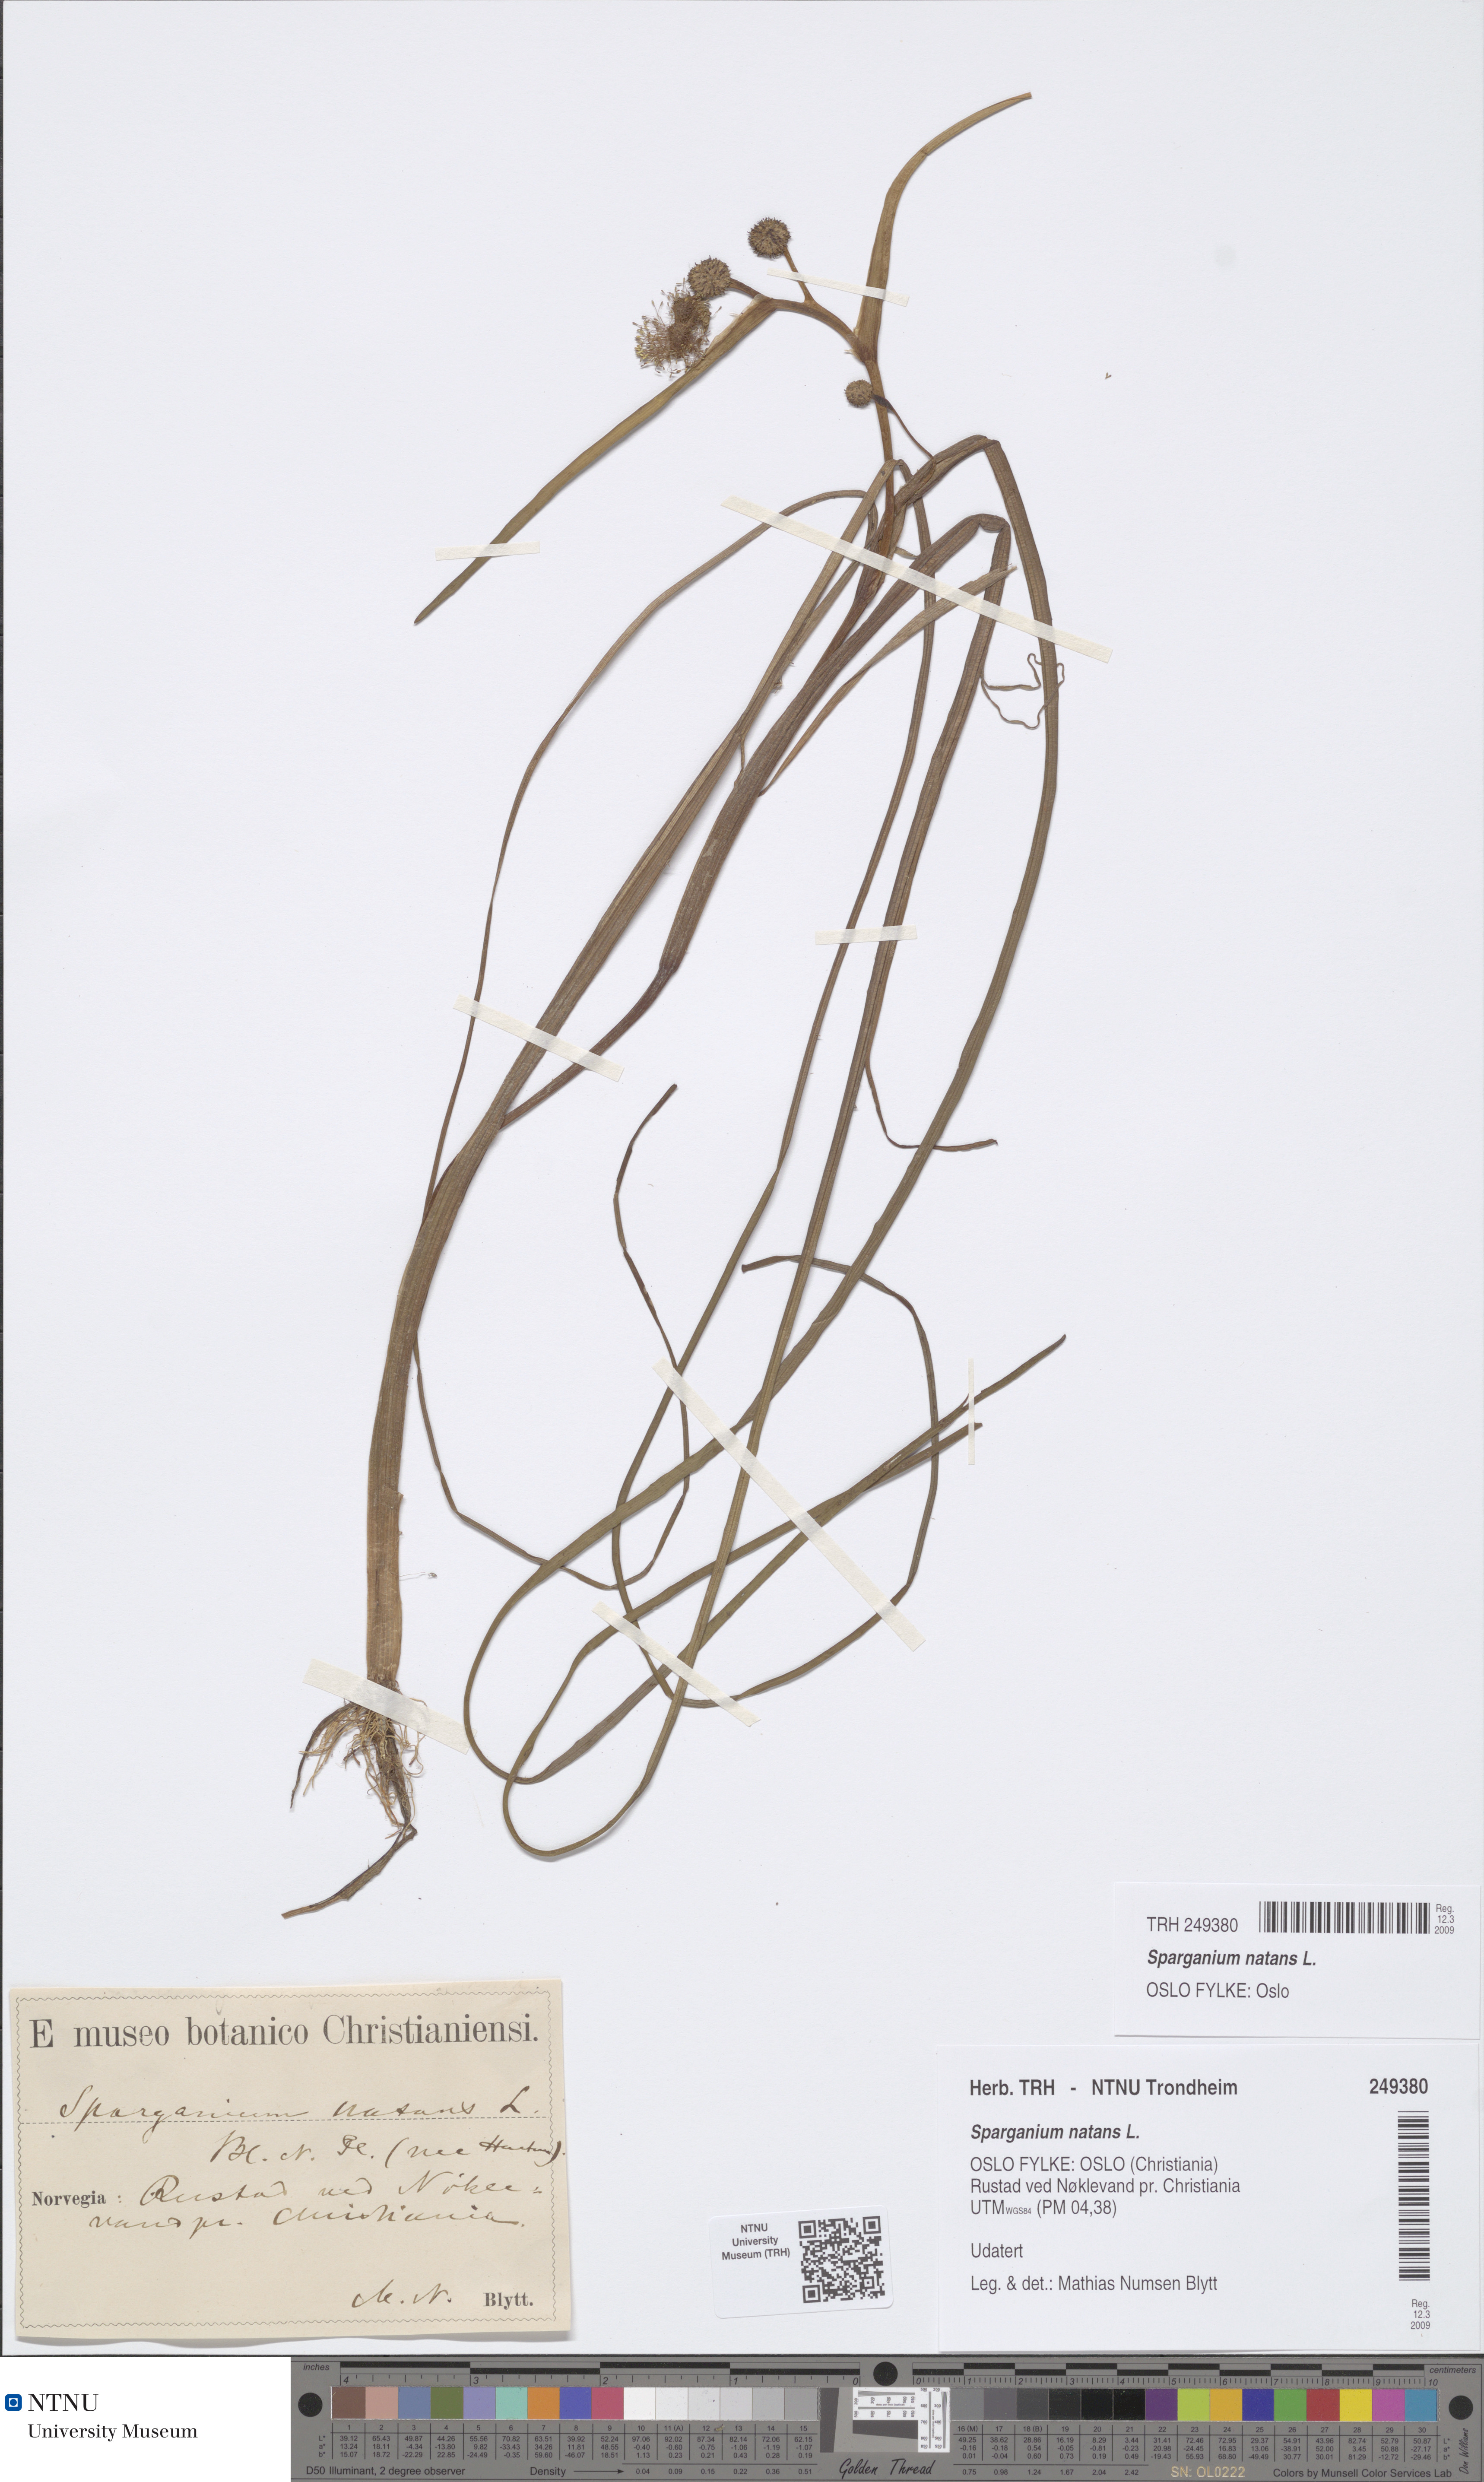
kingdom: Plantae
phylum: Tracheophyta
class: Liliopsida
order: Poales
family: Typhaceae
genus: Sparganium
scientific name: Sparganium natans
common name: Least bur-reed
